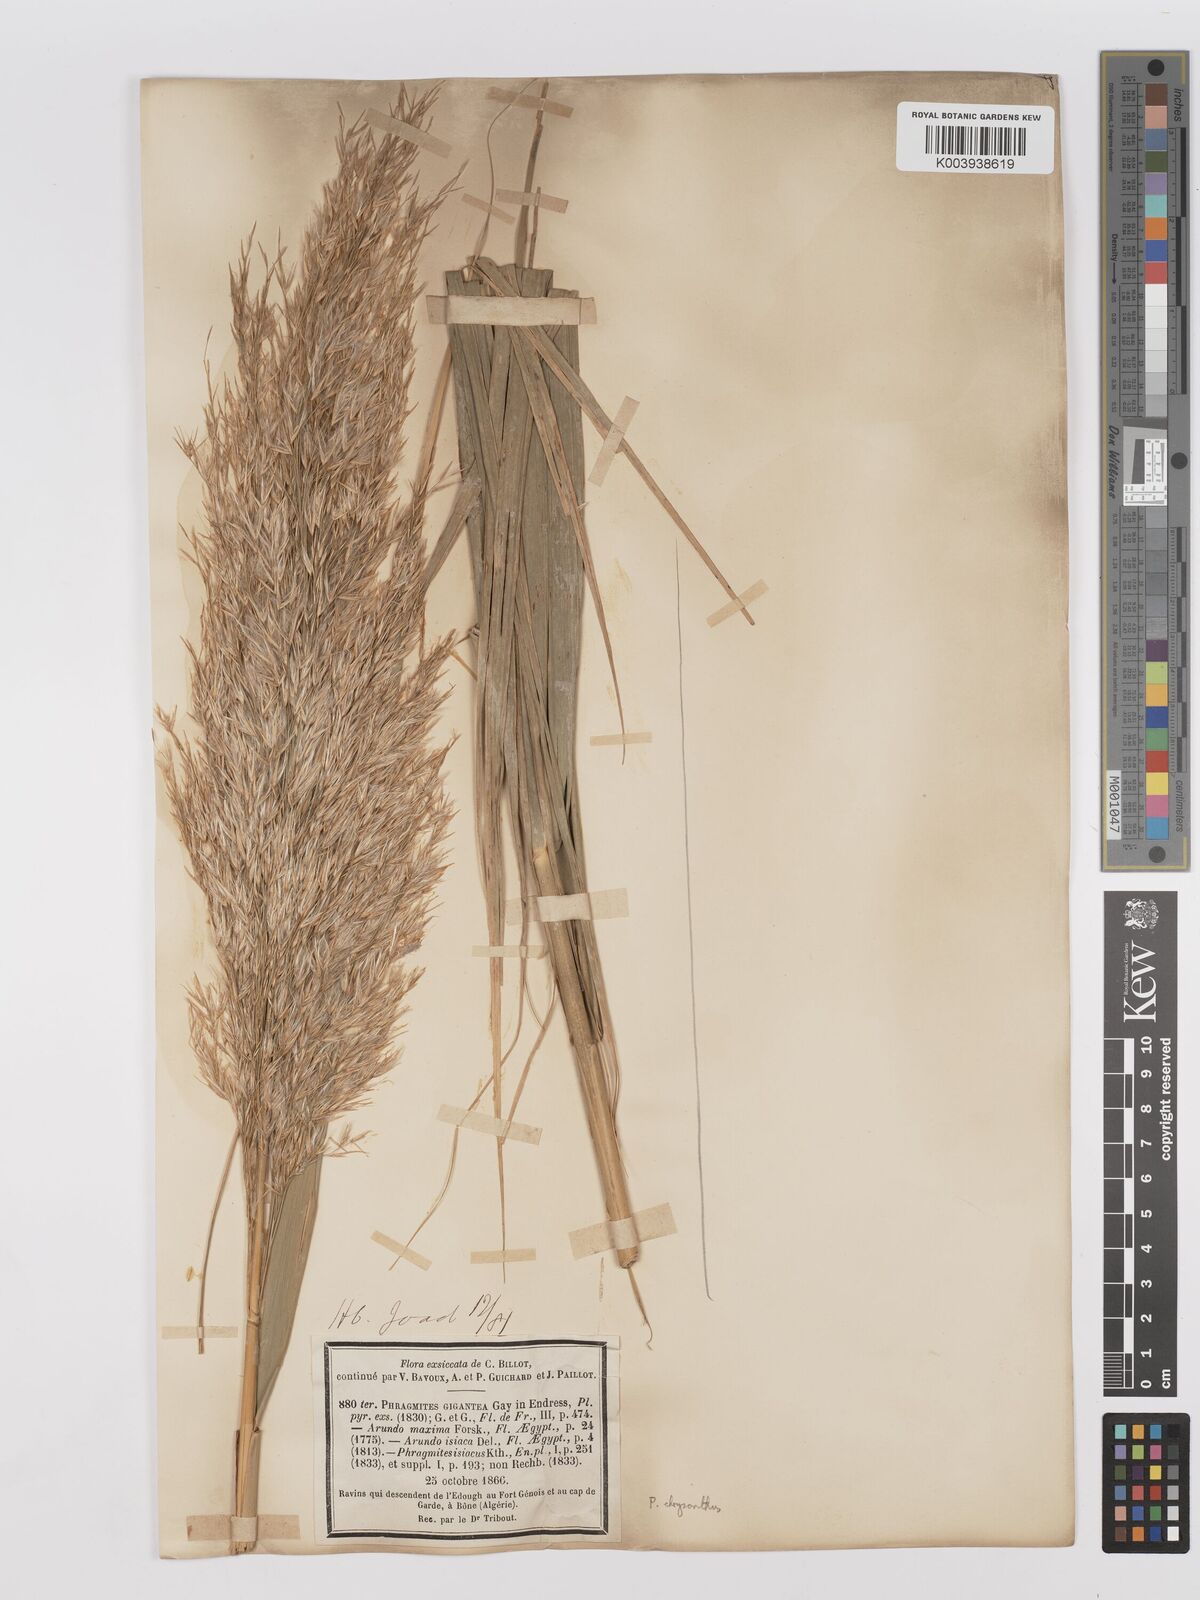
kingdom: Plantae
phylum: Tracheophyta
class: Liliopsida
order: Poales
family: Poaceae
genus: Phragmites
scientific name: Phragmites australis
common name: Common reed
